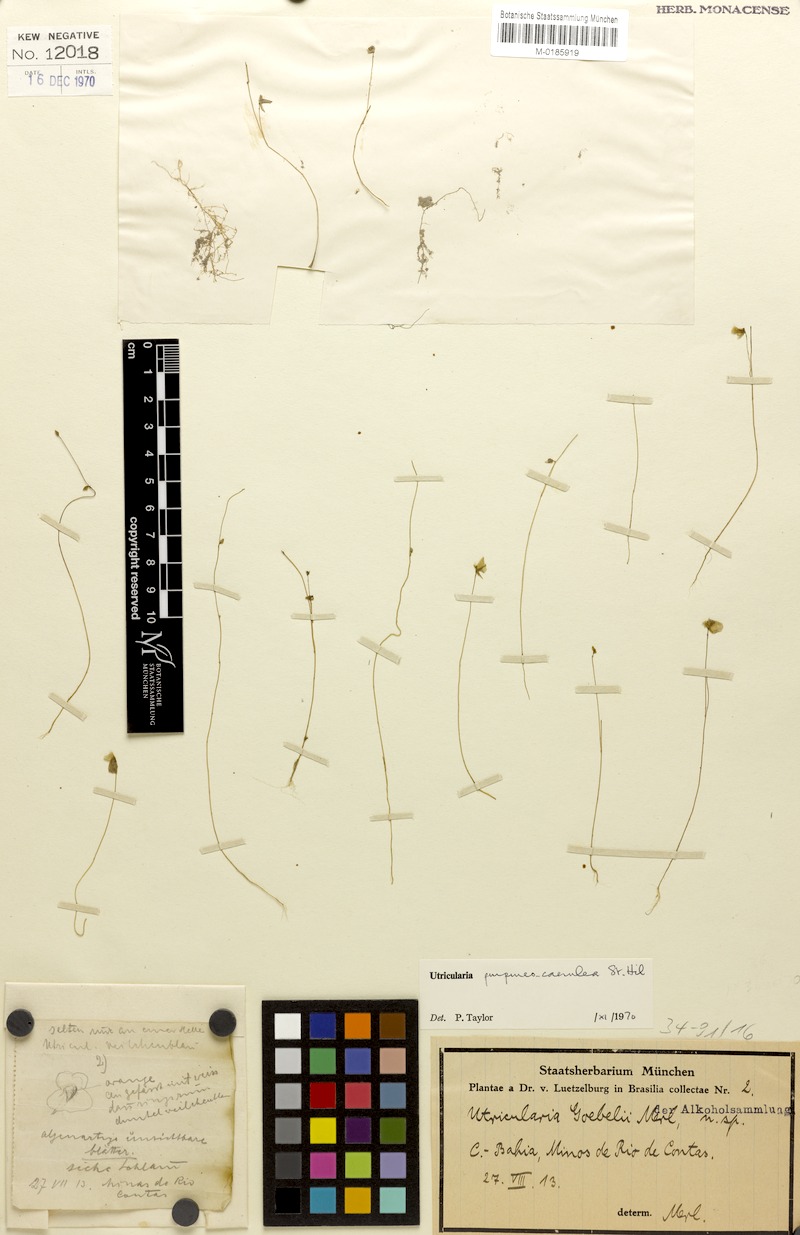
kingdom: Plantae
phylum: Tracheophyta
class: Magnoliopsida
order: Lamiales
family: Lentibulariaceae
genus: Utricularia
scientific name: Utricularia purpureocaerulea
